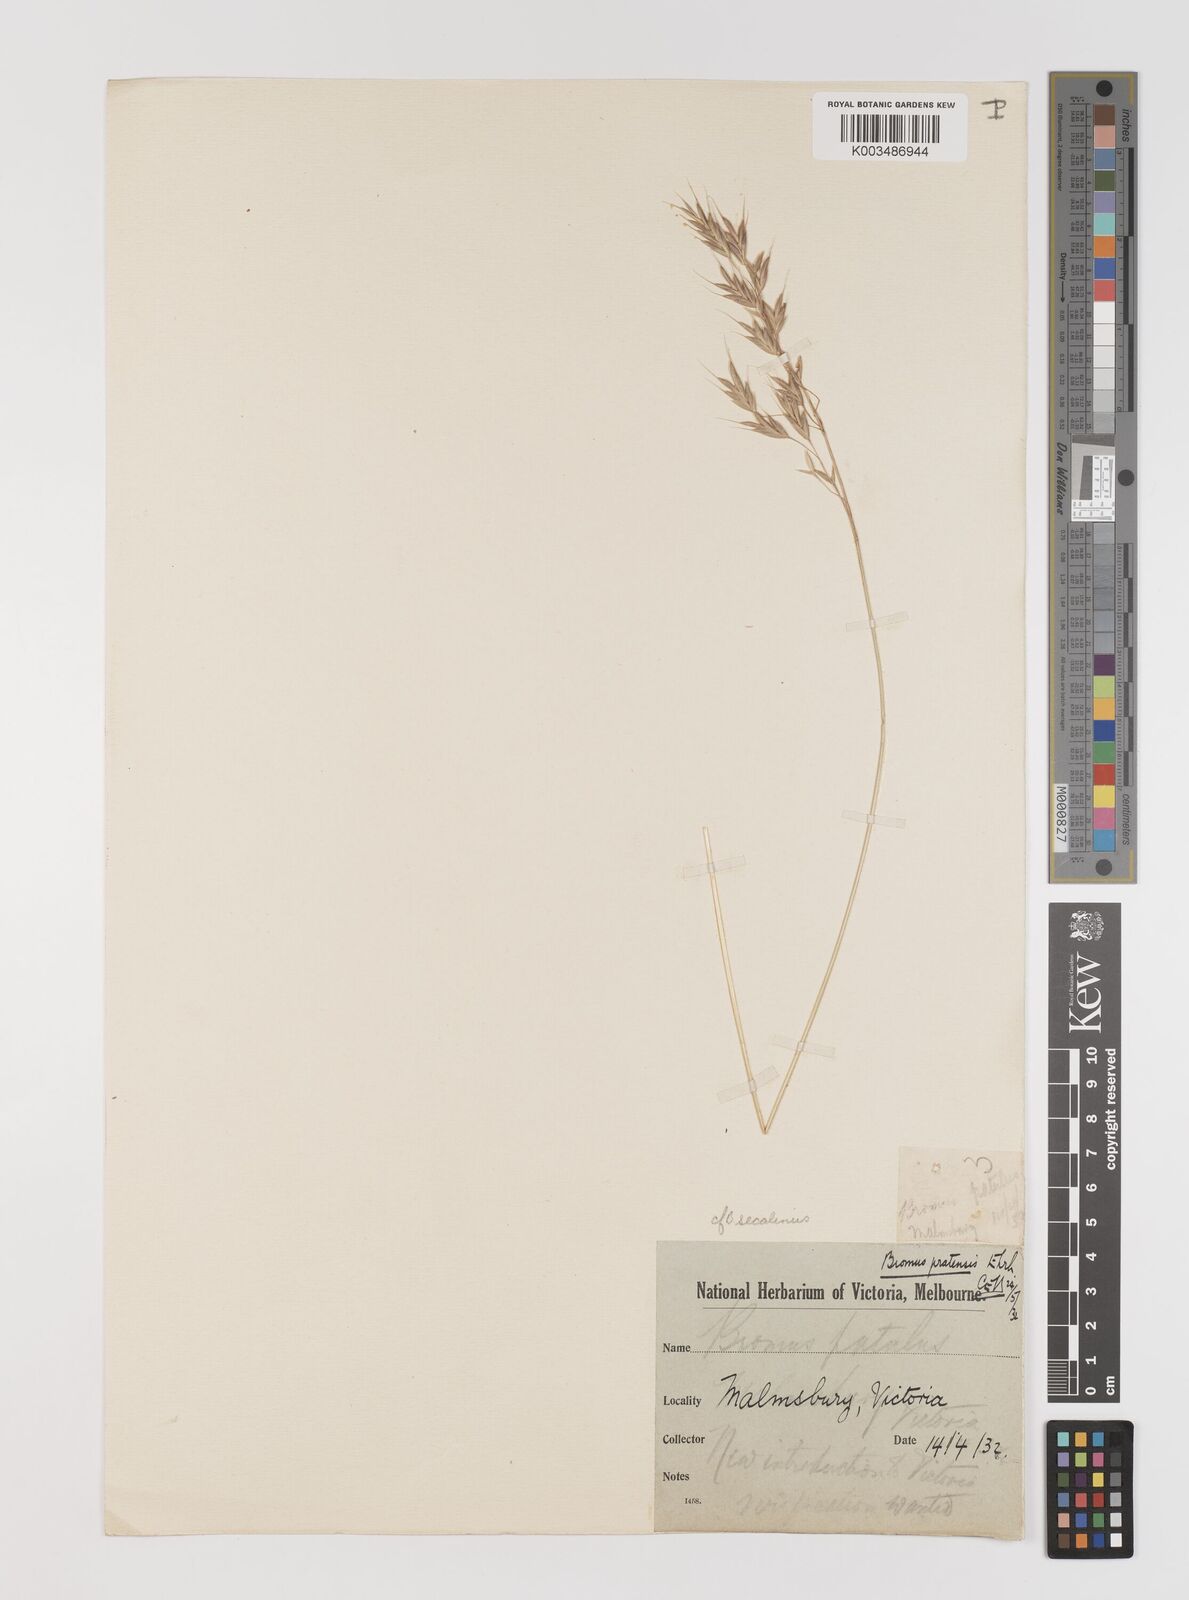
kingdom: Plantae
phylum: Tracheophyta
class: Liliopsida
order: Poales
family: Poaceae
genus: Bromus
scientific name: Bromus racemosus
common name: Bald brome
